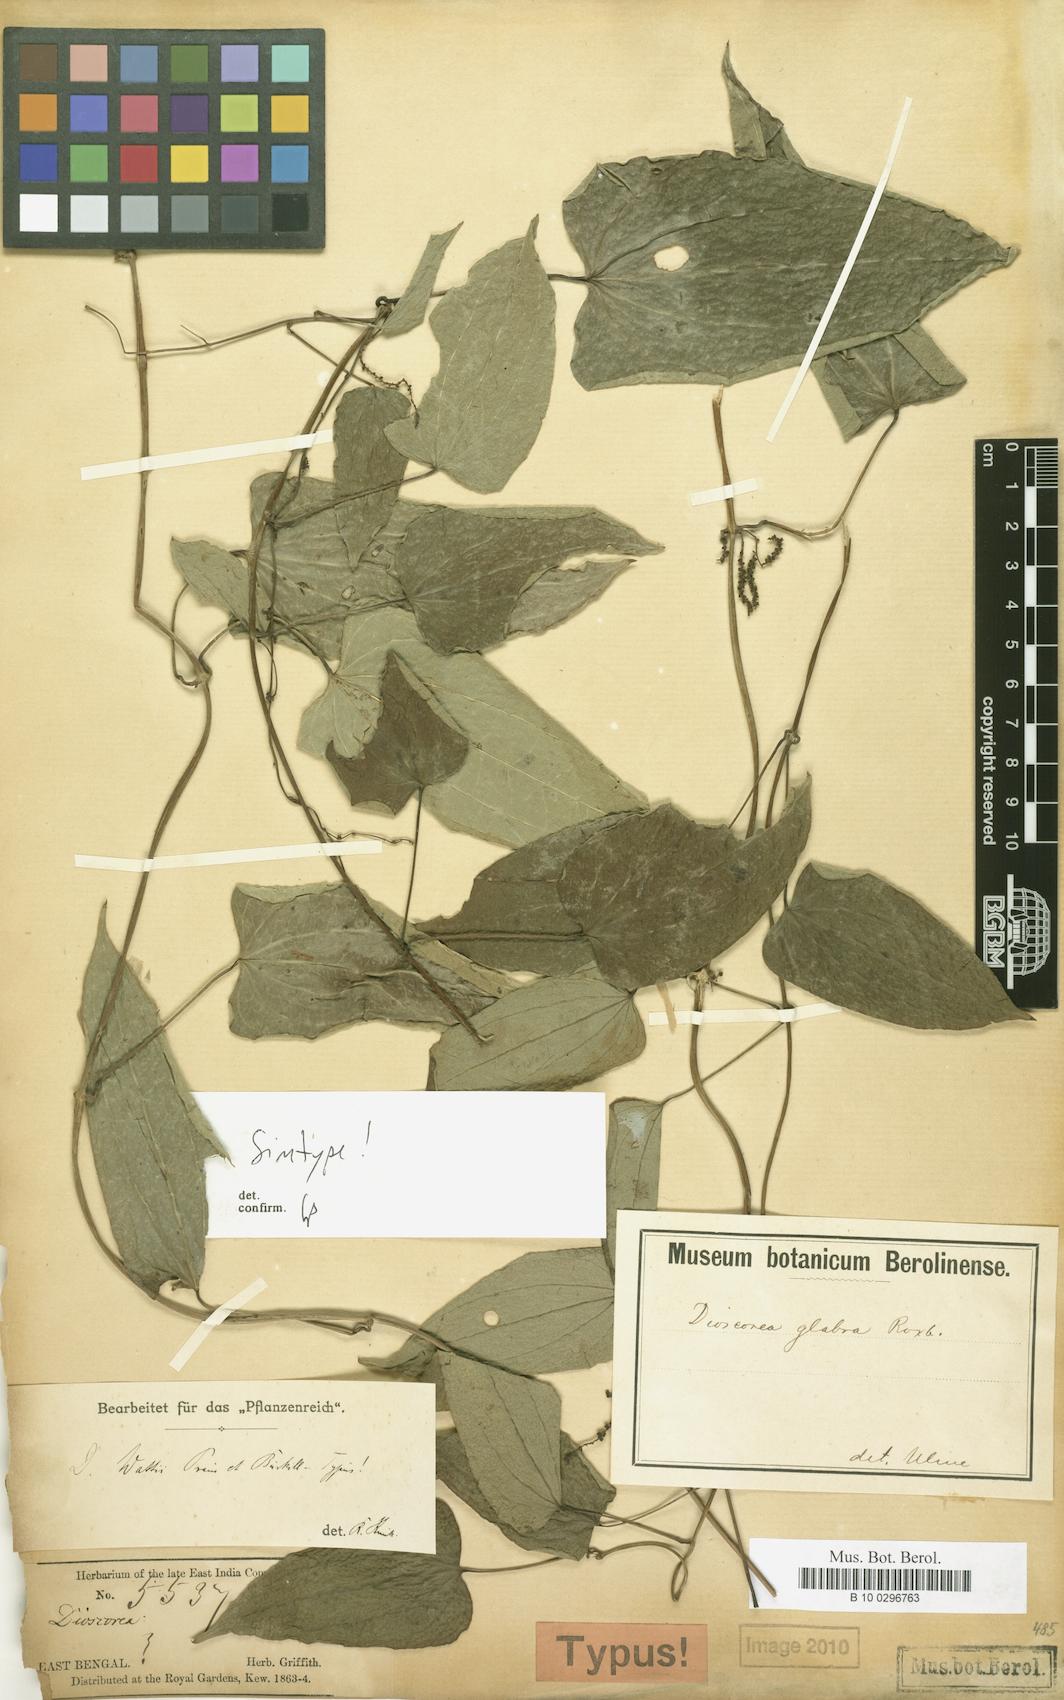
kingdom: Plantae
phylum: Tracheophyta
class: Liliopsida
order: Dioscoreales
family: Dioscoreaceae
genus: Dioscorea
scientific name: Dioscorea wattii
